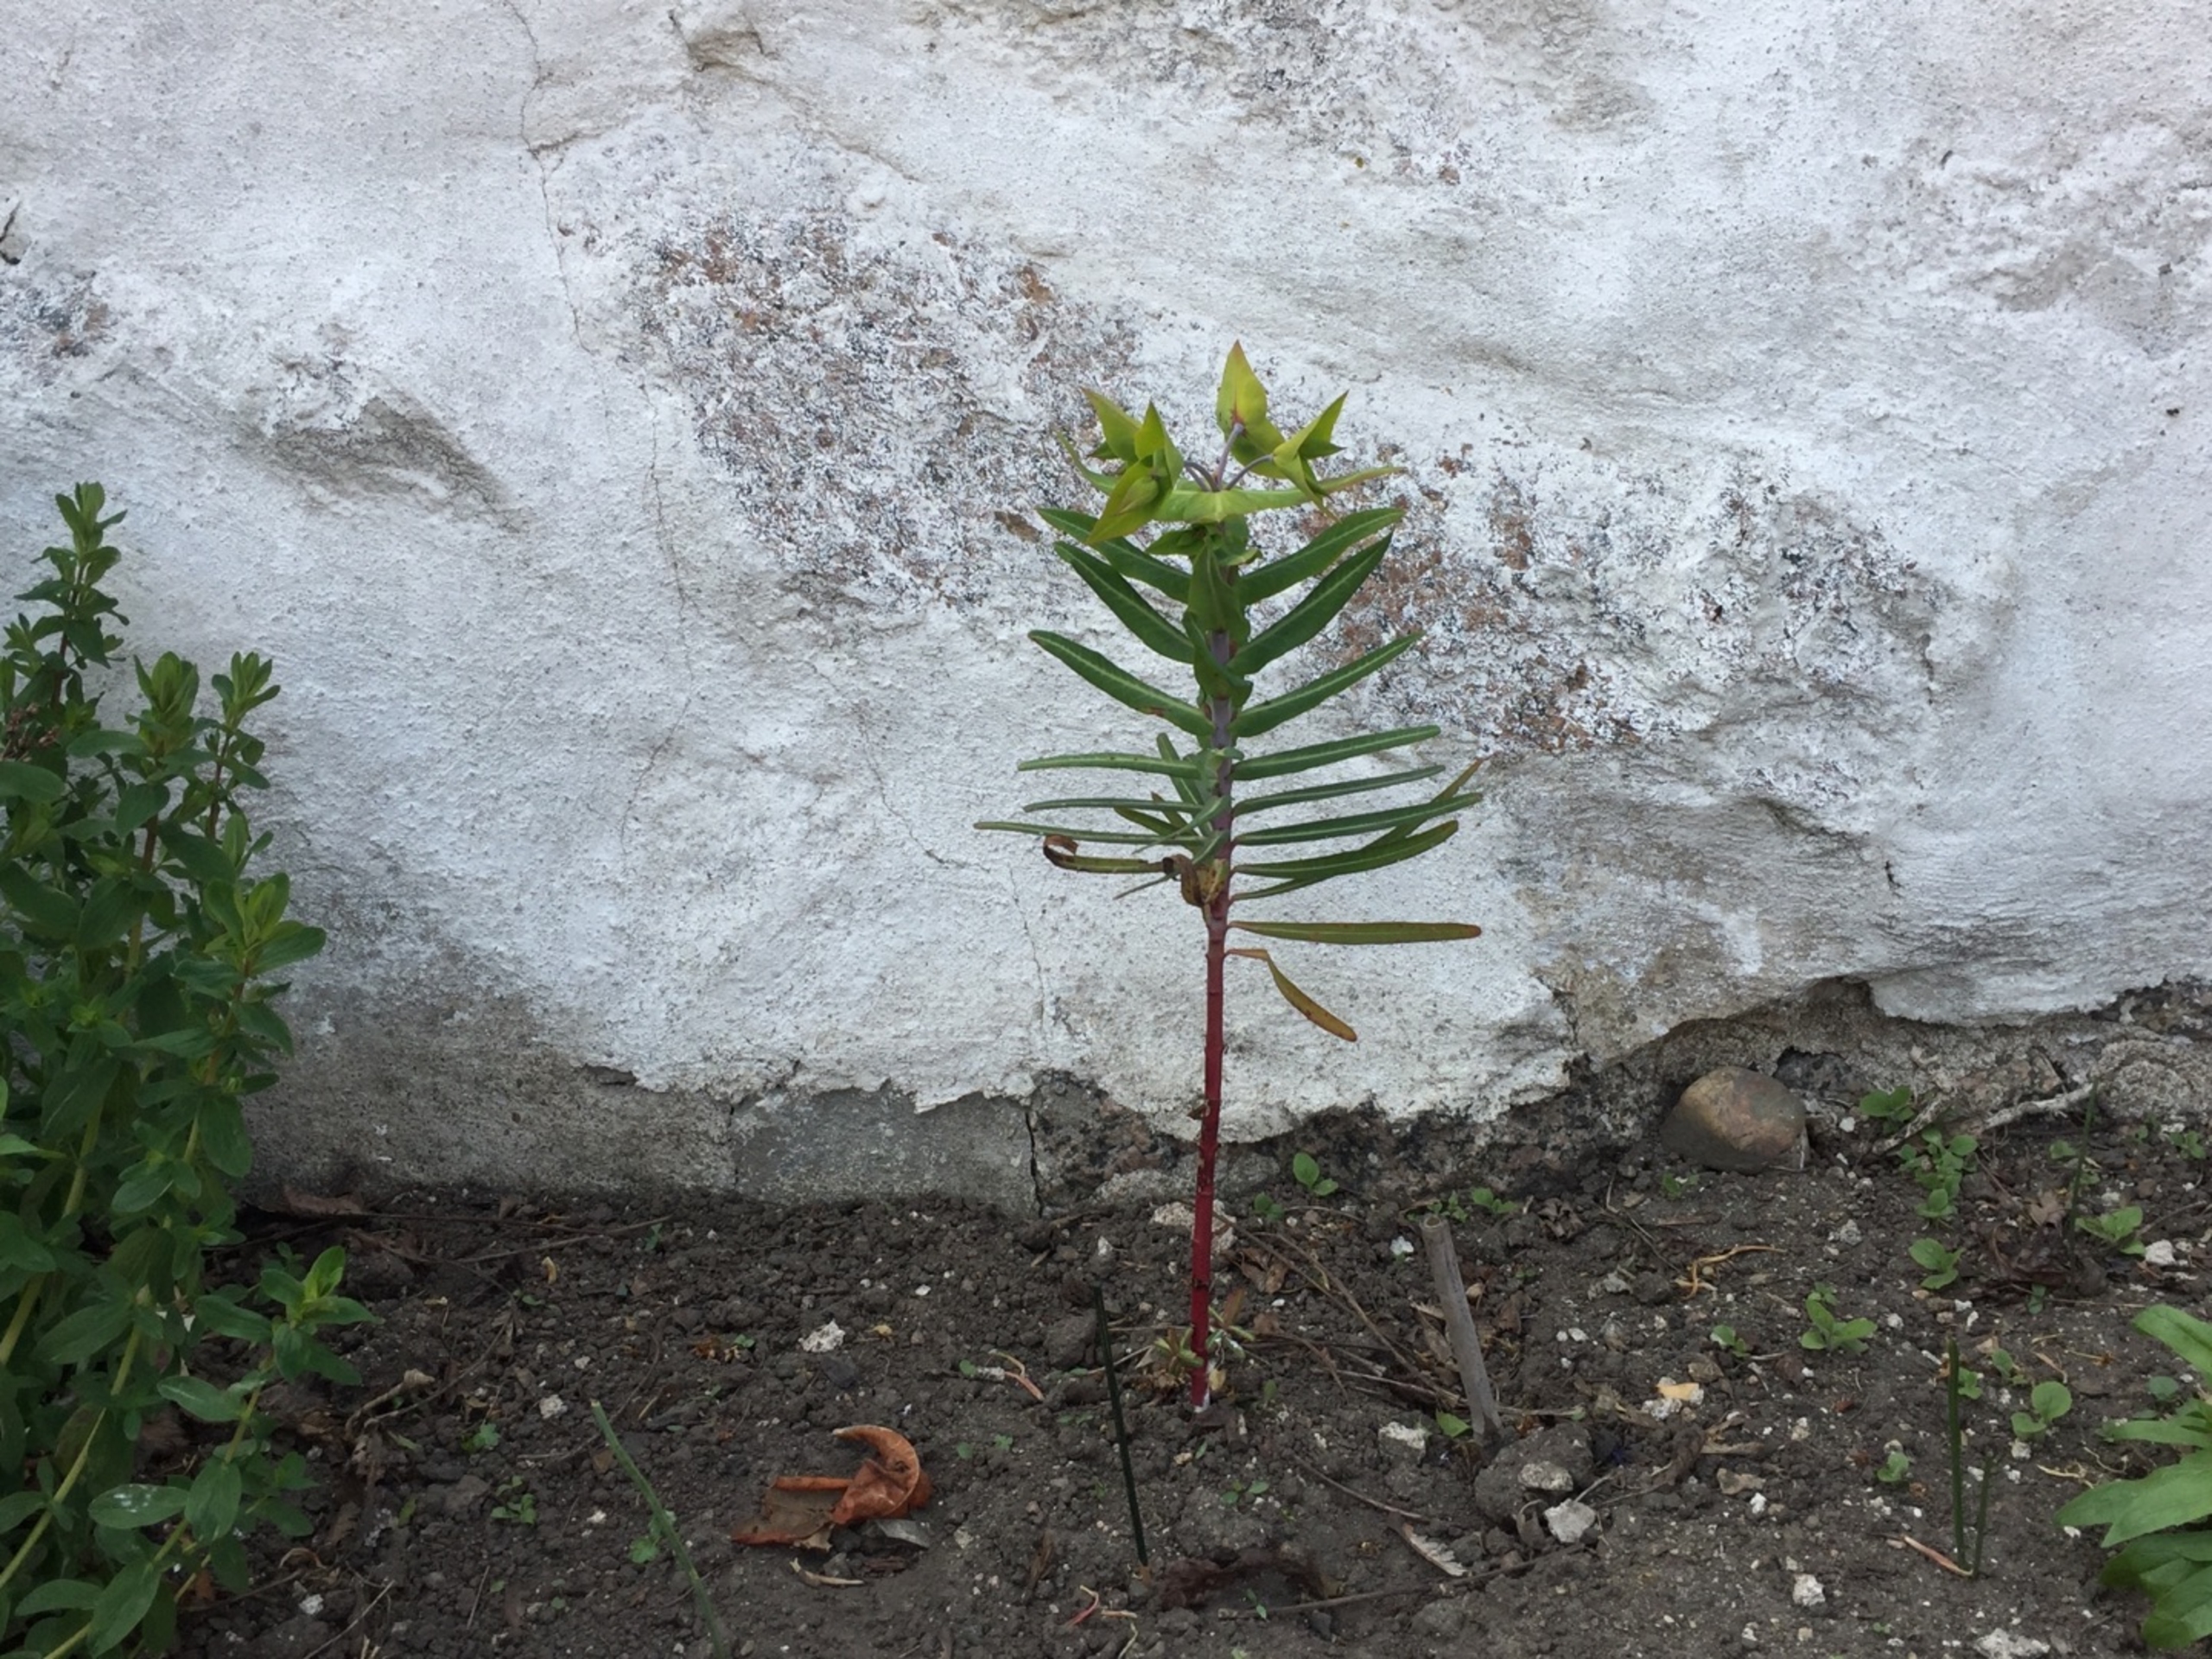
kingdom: Plantae
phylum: Tracheophyta
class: Magnoliopsida
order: Malpighiales
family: Euphorbiaceae
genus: Euphorbia
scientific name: Euphorbia lathyris
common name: Kors-vortemælk
